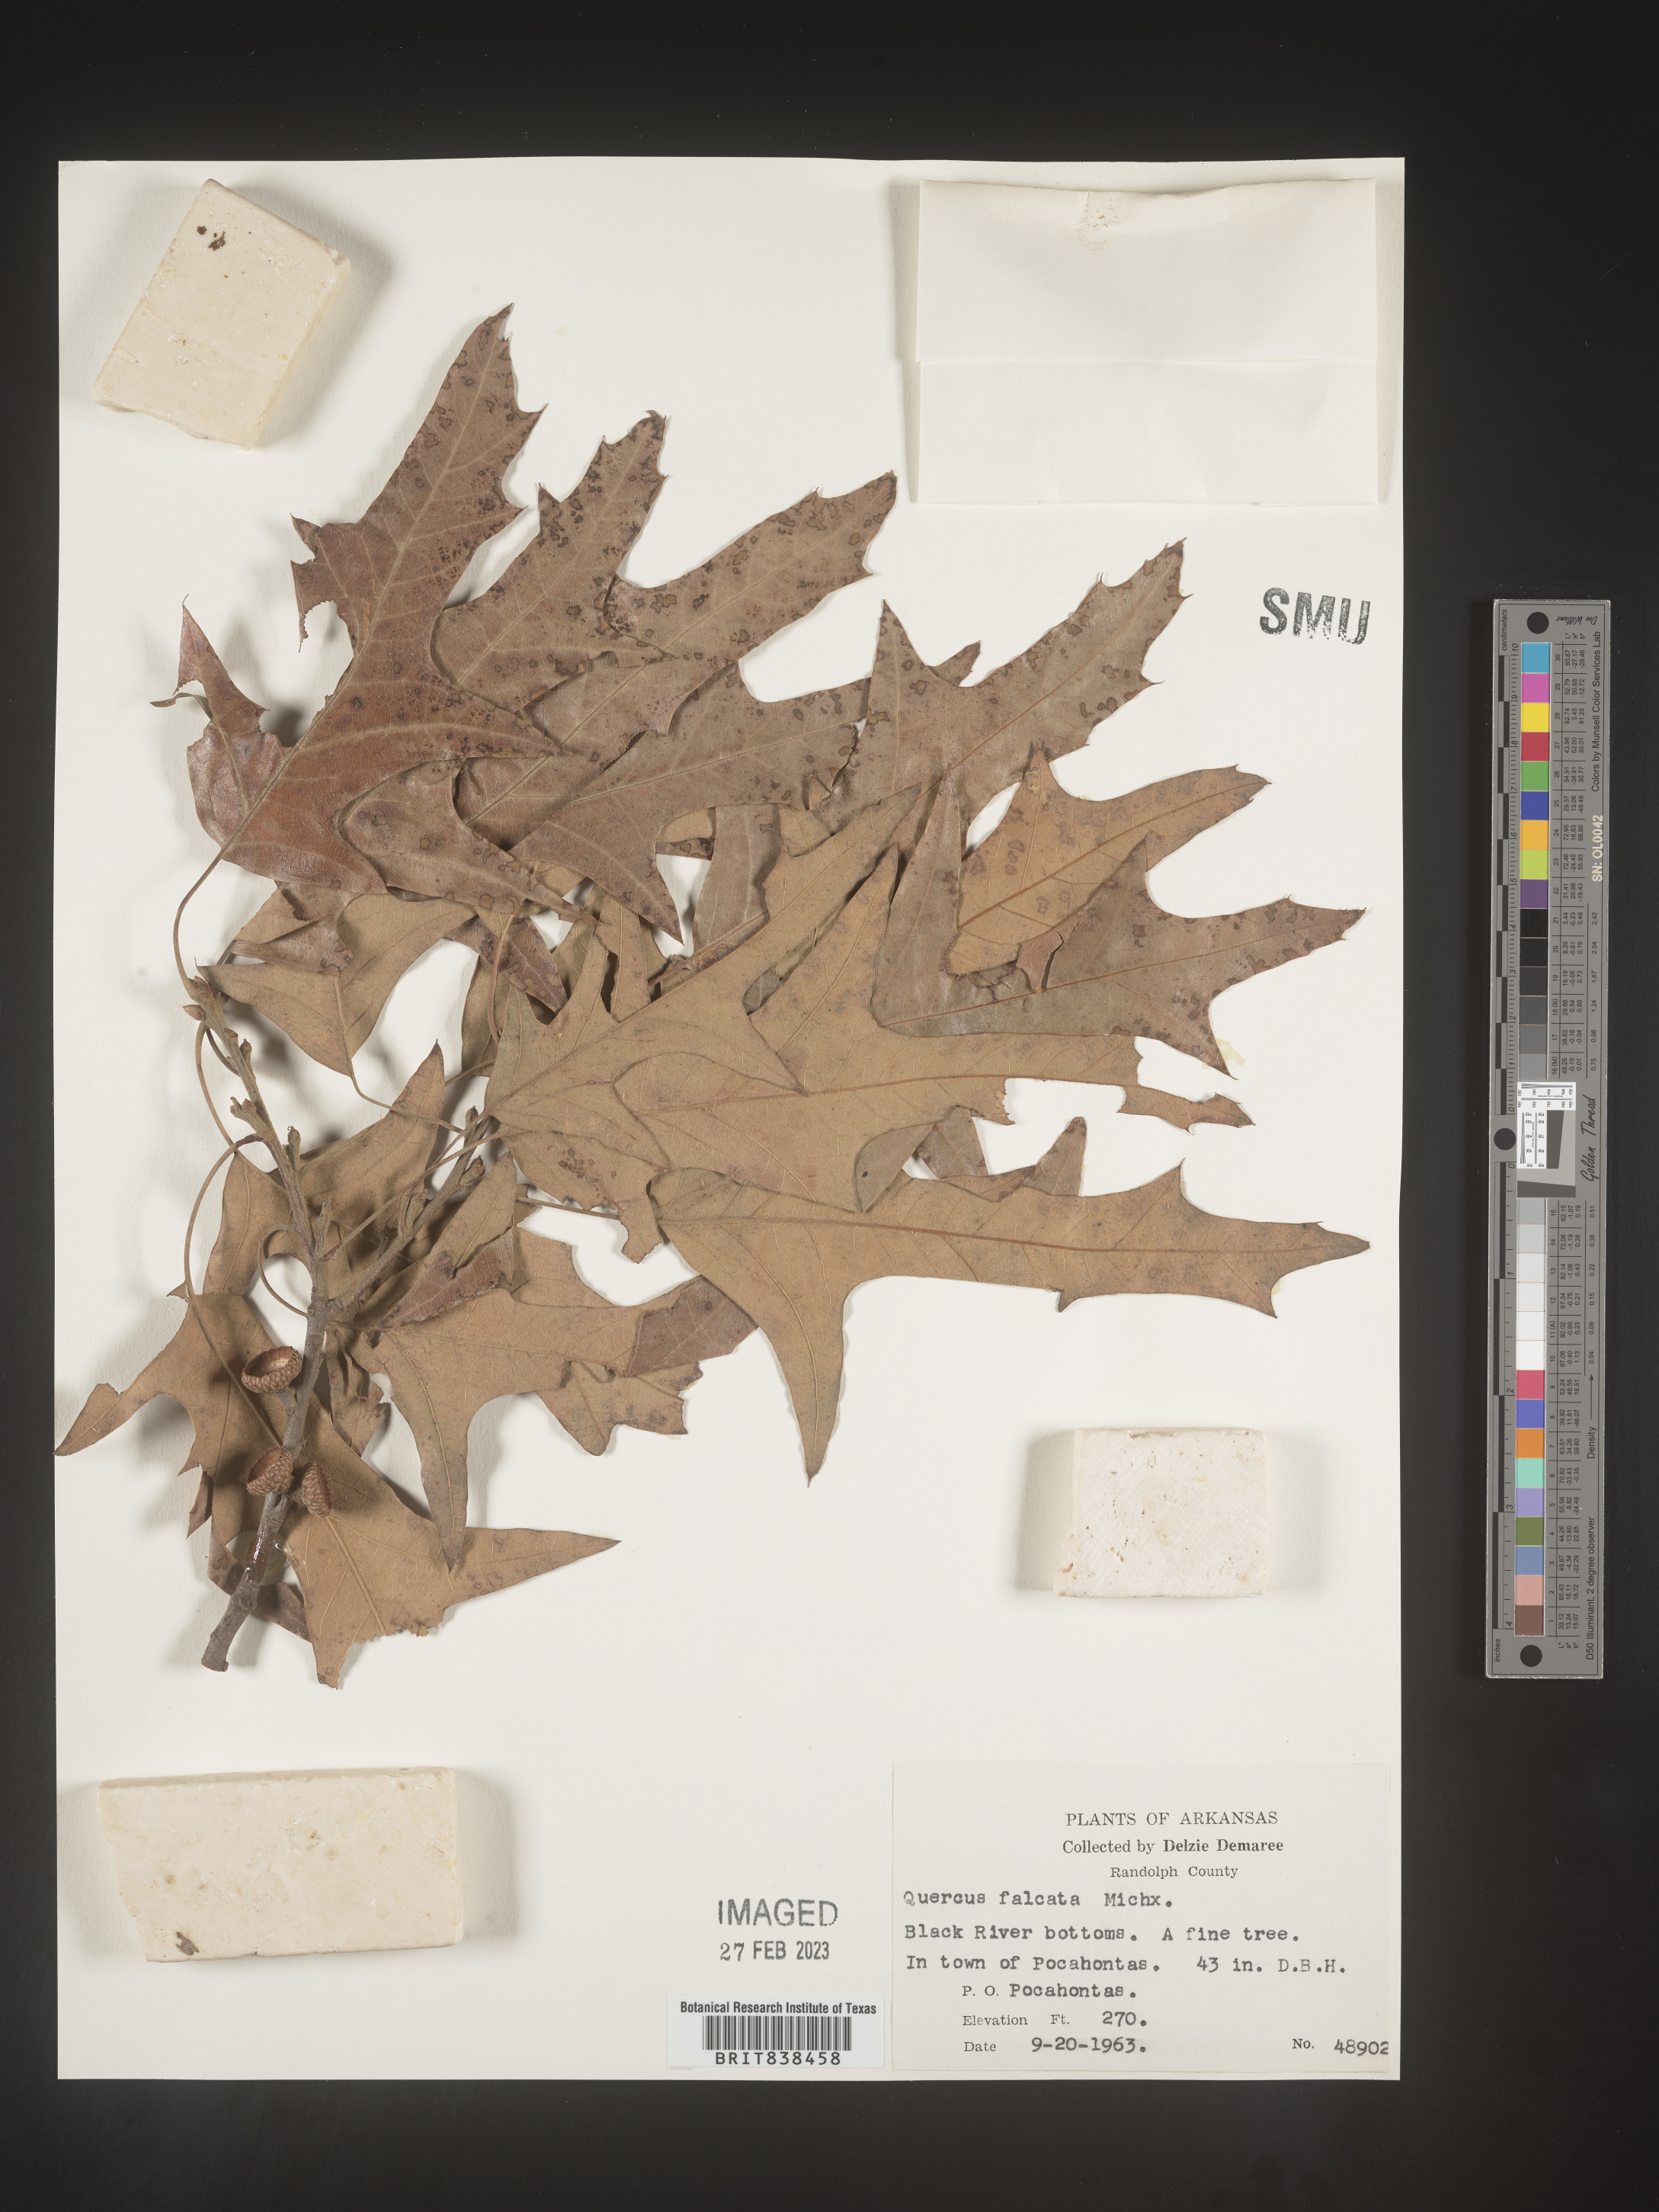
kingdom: Plantae
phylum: Tracheophyta
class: Magnoliopsida
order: Fagales
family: Fagaceae
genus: Quercus
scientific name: Quercus falcata
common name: Southern red oak
